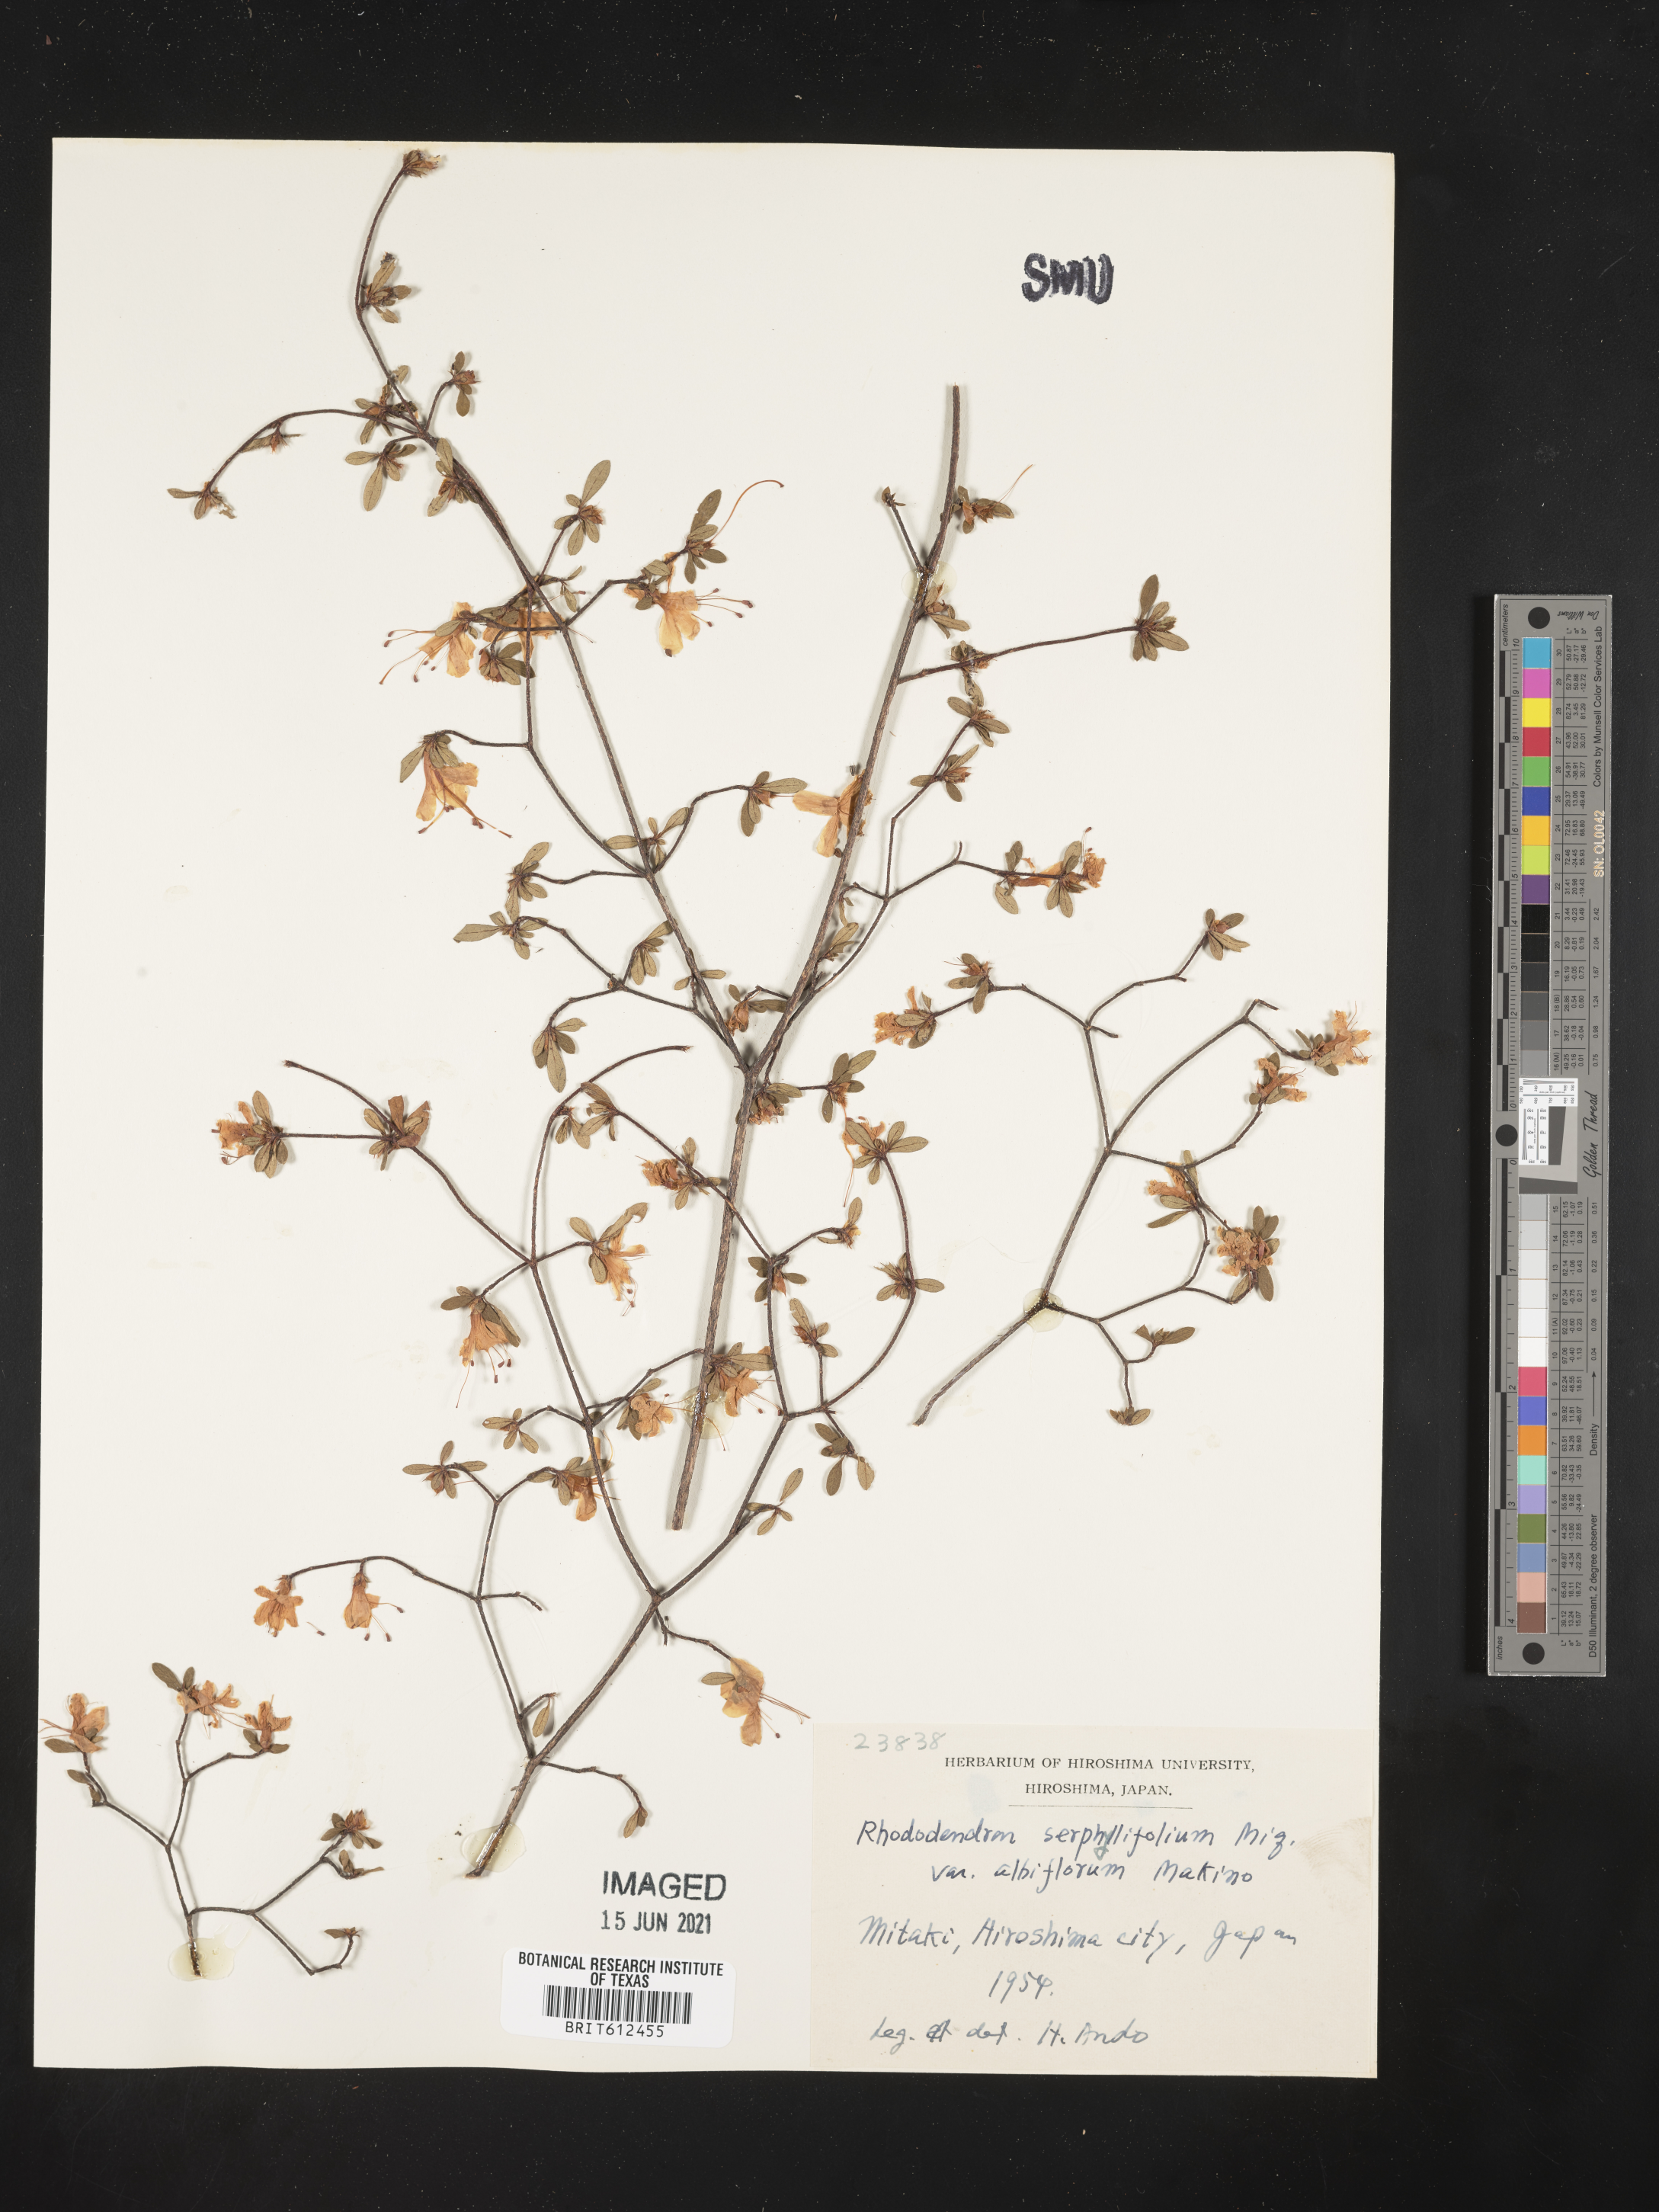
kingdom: Plantae
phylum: Tracheophyta
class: Magnoliopsida
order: Ericales
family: Ericaceae
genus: Rhododendron
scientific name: Rhododendron serpyllifolium
